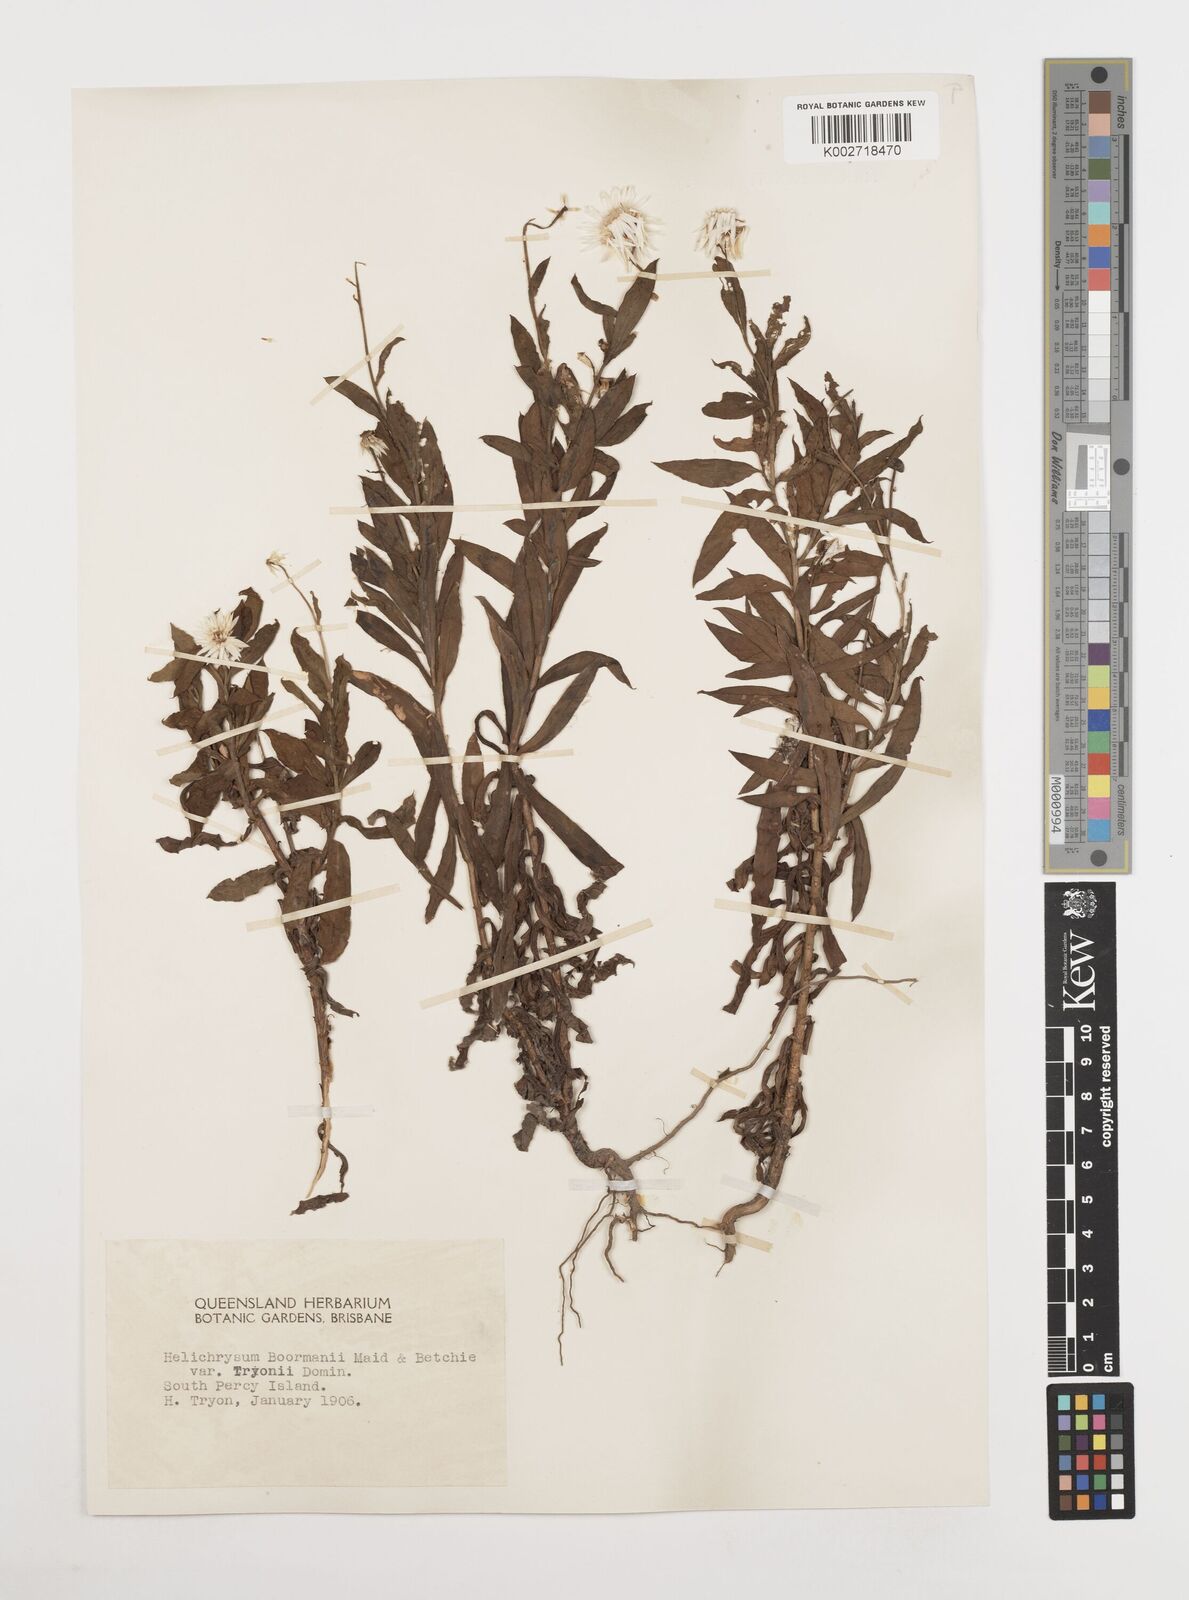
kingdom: Plantae
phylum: Tracheophyta
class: Magnoliopsida
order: Asterales
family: Asteraceae
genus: Coronidium
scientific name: Coronidium lanuginosum
